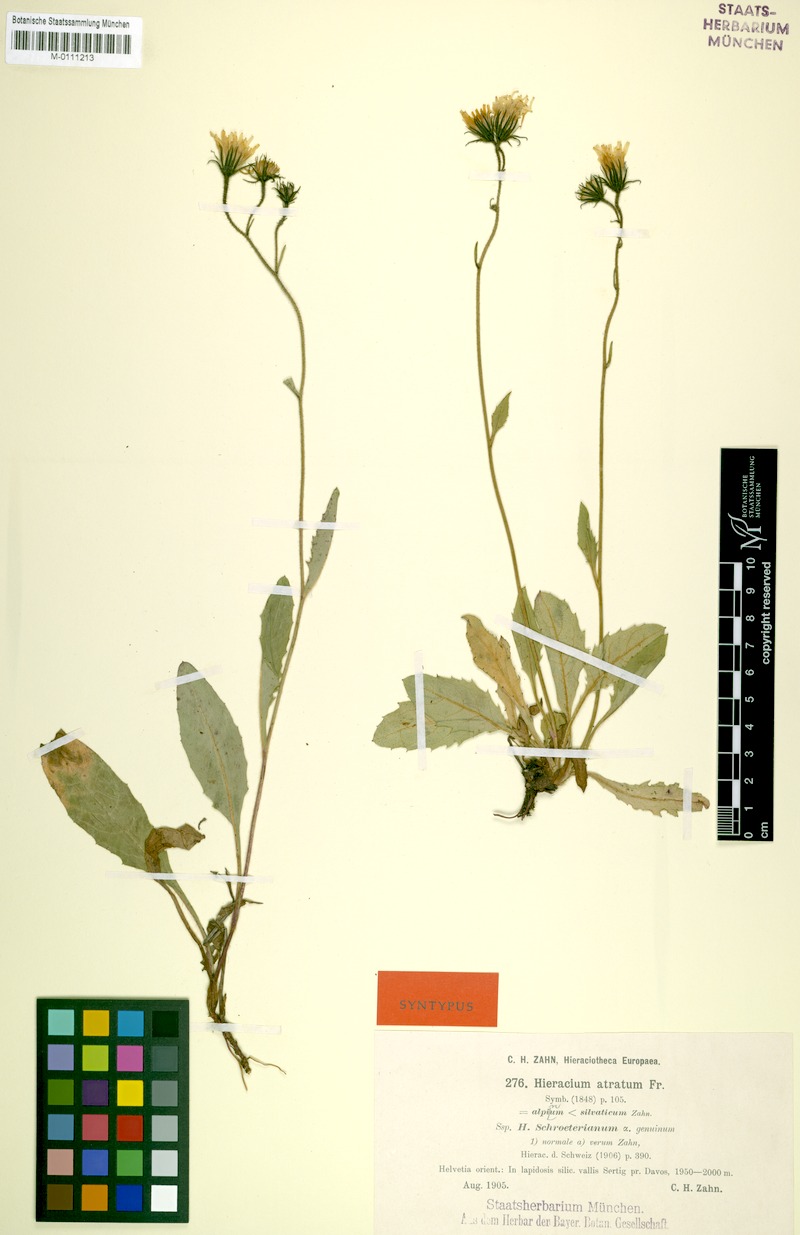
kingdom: Plantae
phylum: Tracheophyta
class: Magnoliopsida
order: Asterales
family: Asteraceae
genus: Hieracium
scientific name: Hieracium atratum
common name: Polar hawkweed
